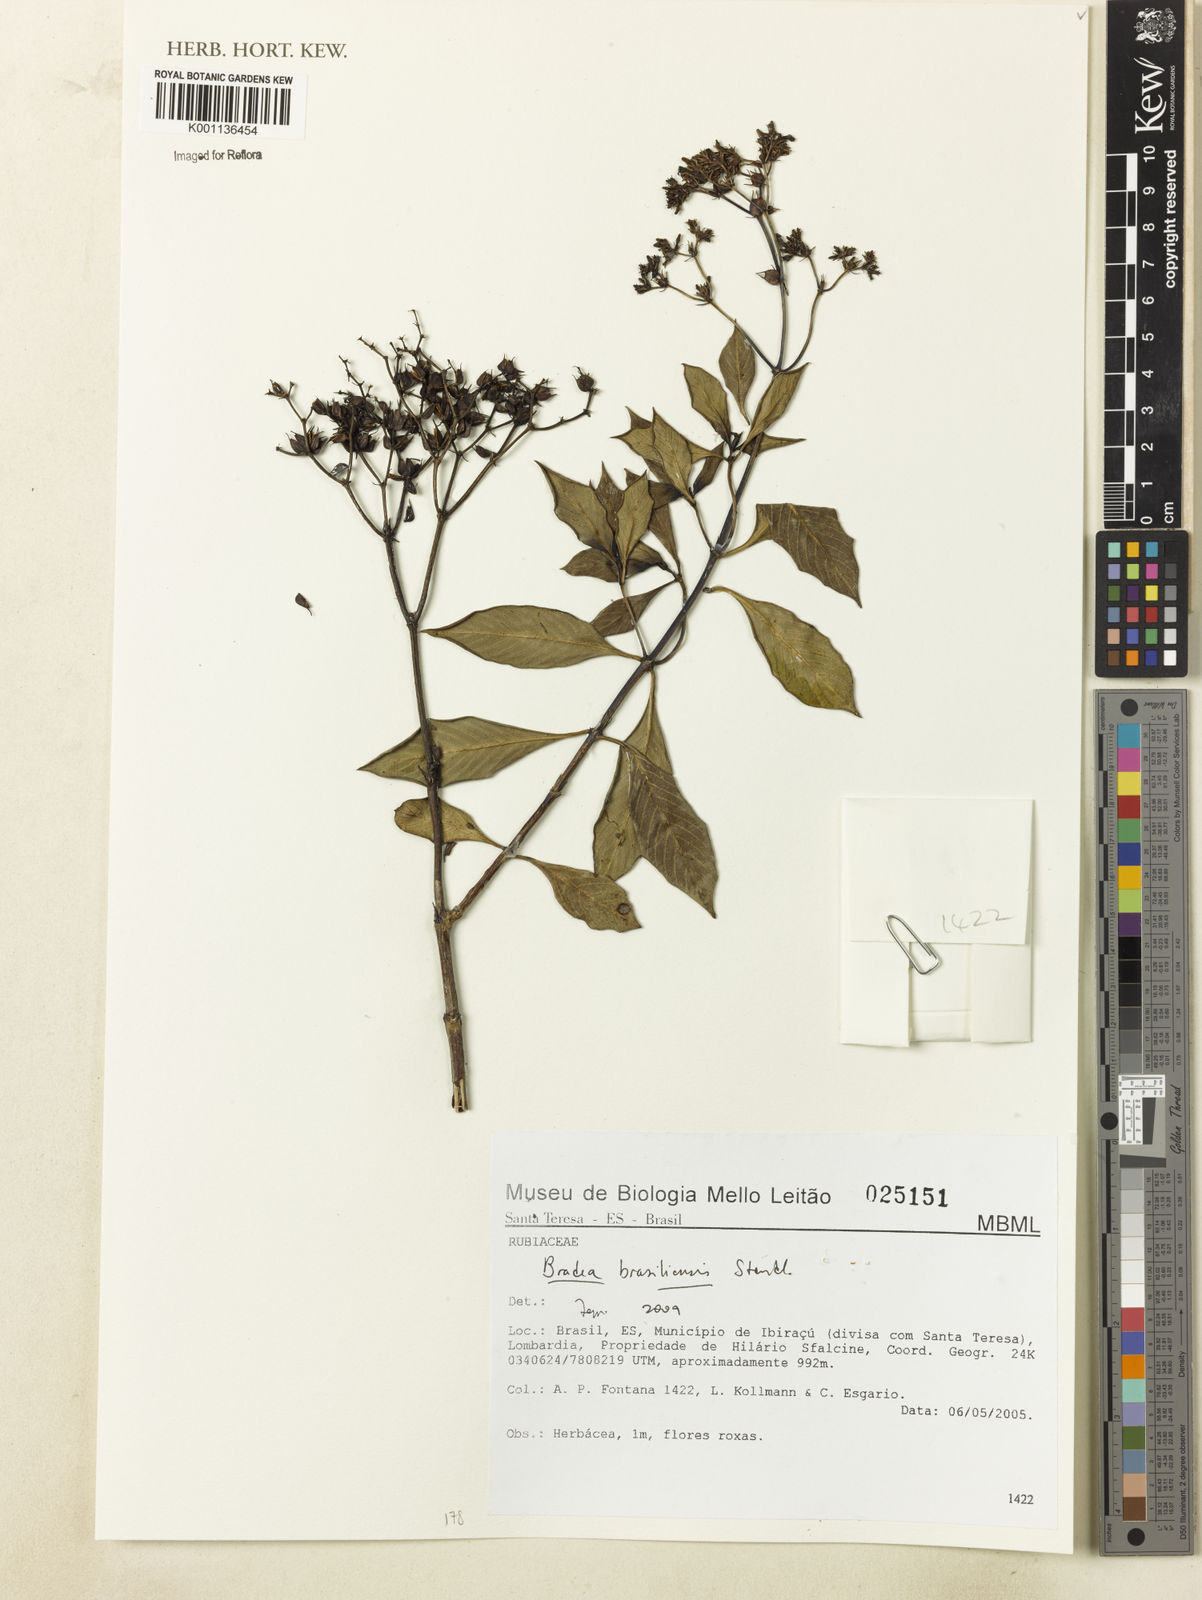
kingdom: Plantae
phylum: Tracheophyta
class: Magnoliopsida
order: Gentianales
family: Rubiaceae
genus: Bradea
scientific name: Bradea brasiliensis
